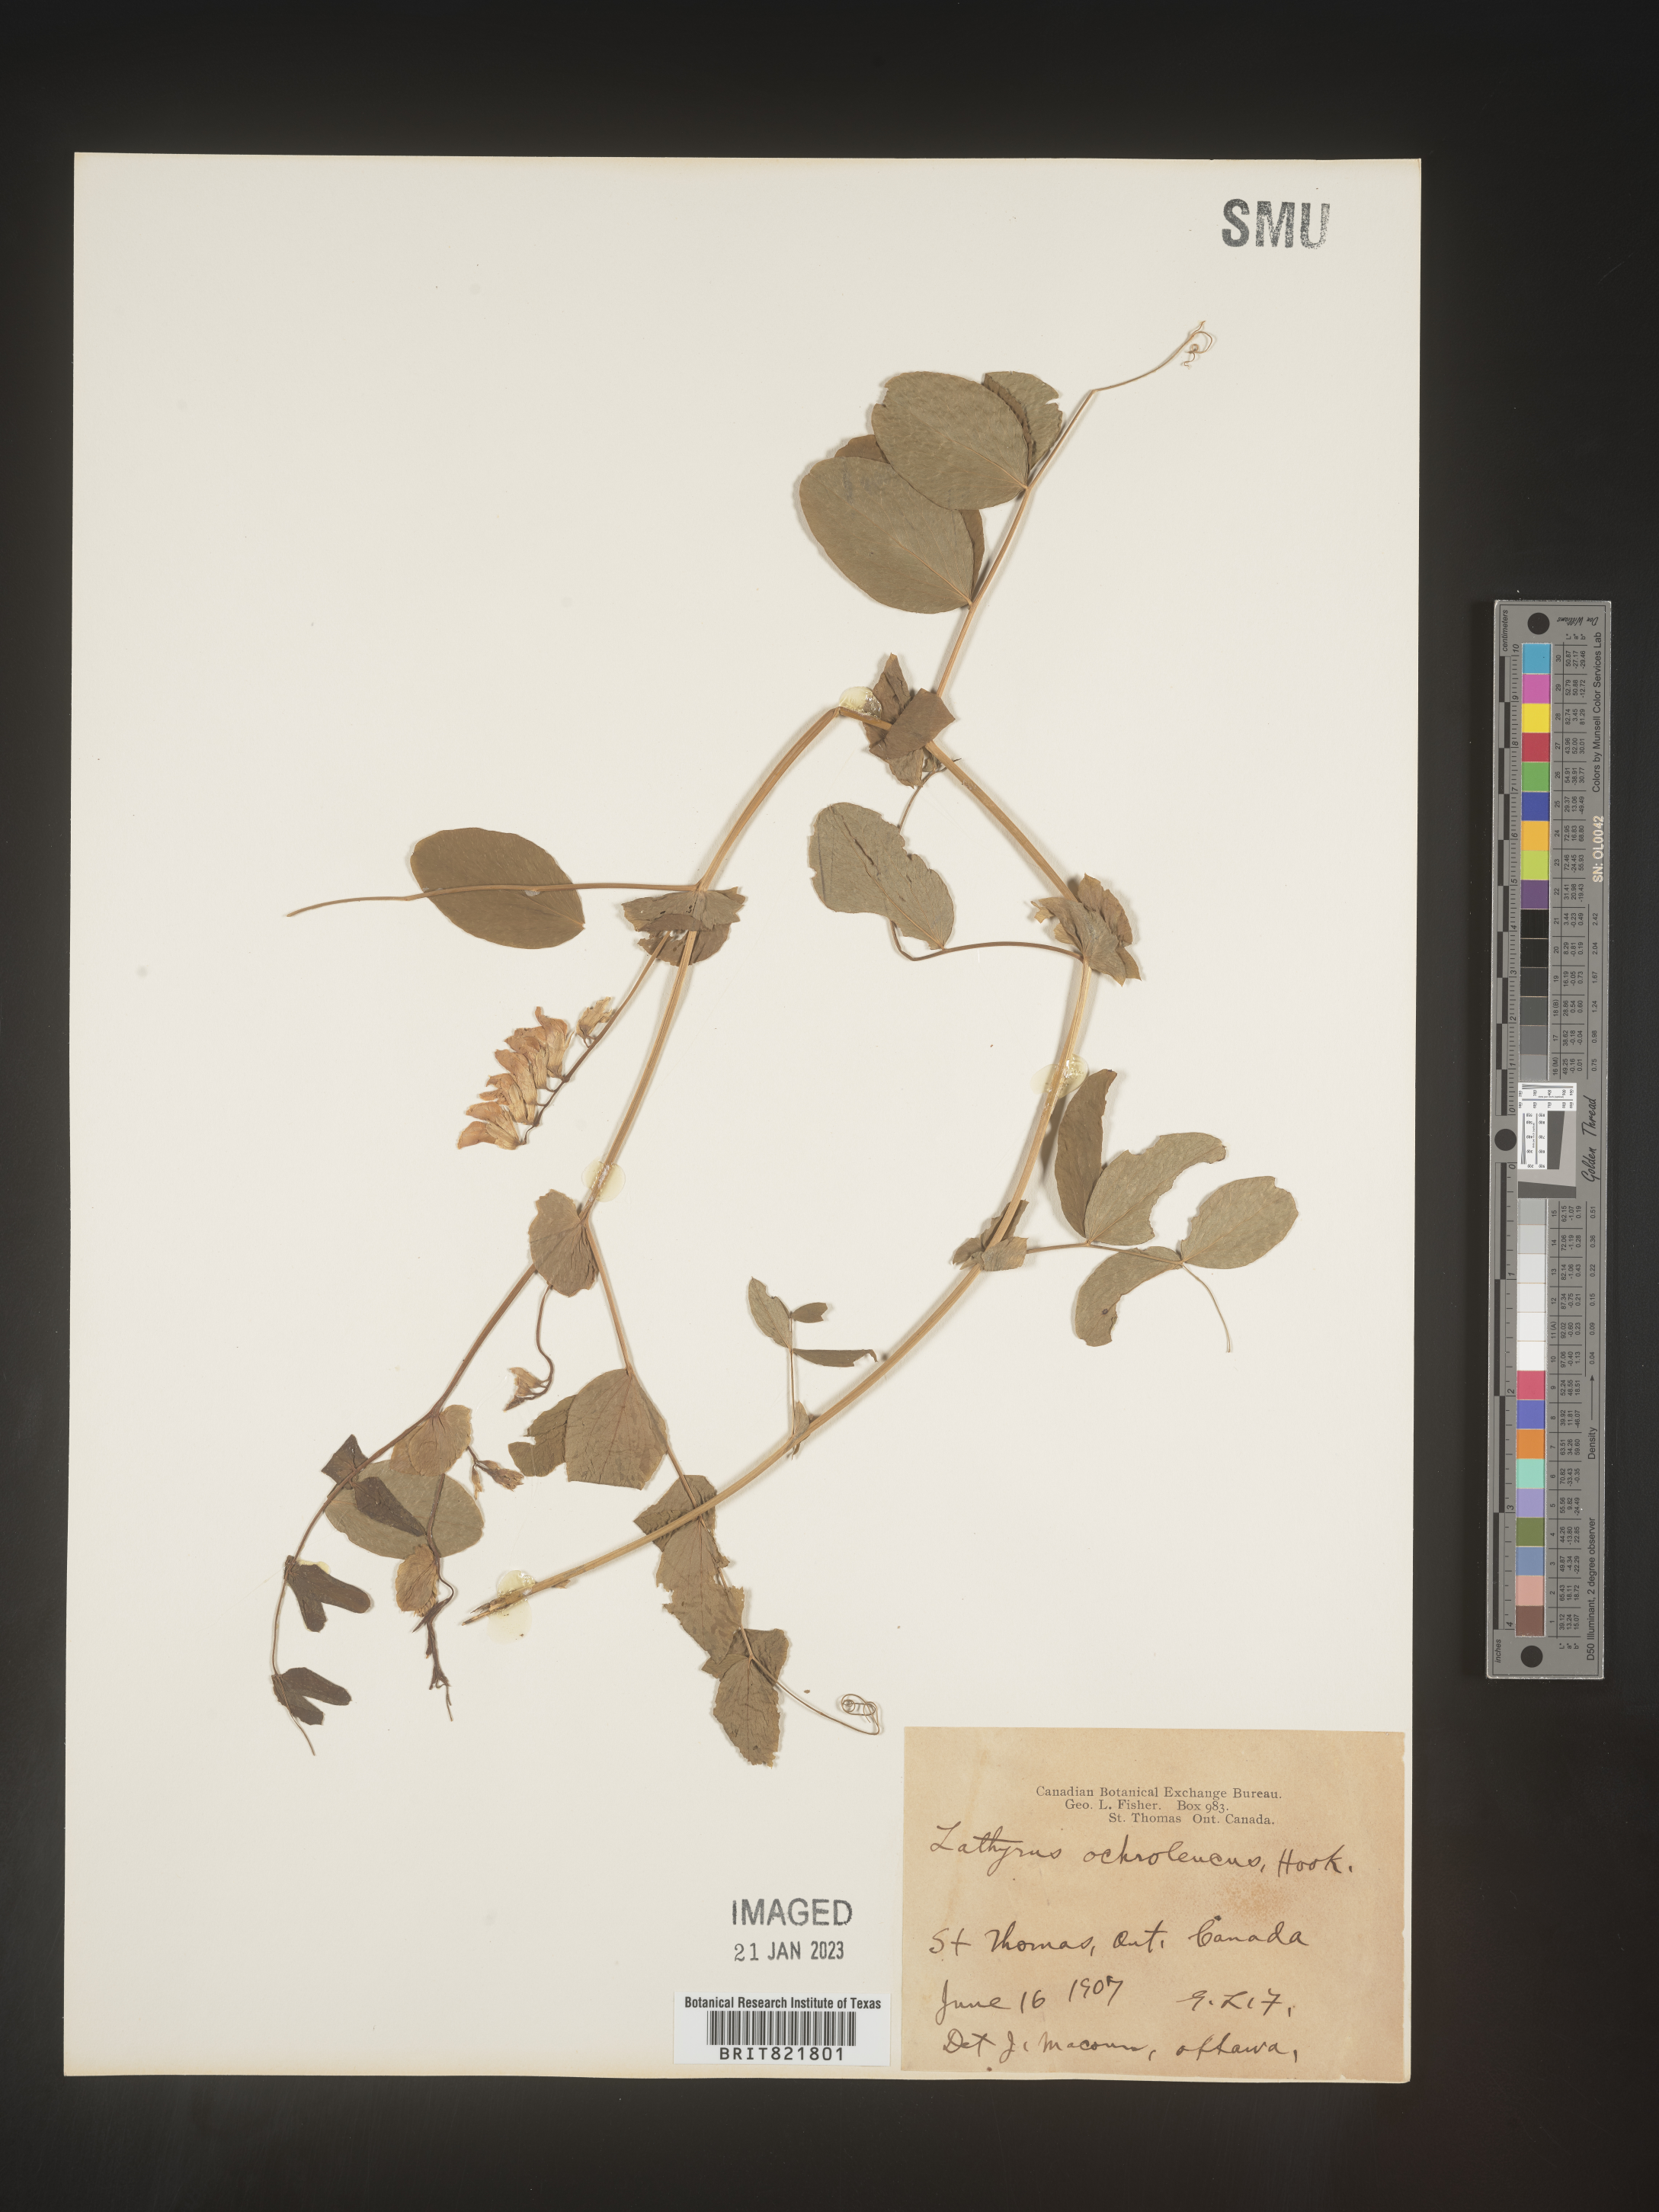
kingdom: Plantae
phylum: Tracheophyta
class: Magnoliopsida
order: Fabales
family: Fabaceae
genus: Lathyrus
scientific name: Lathyrus
